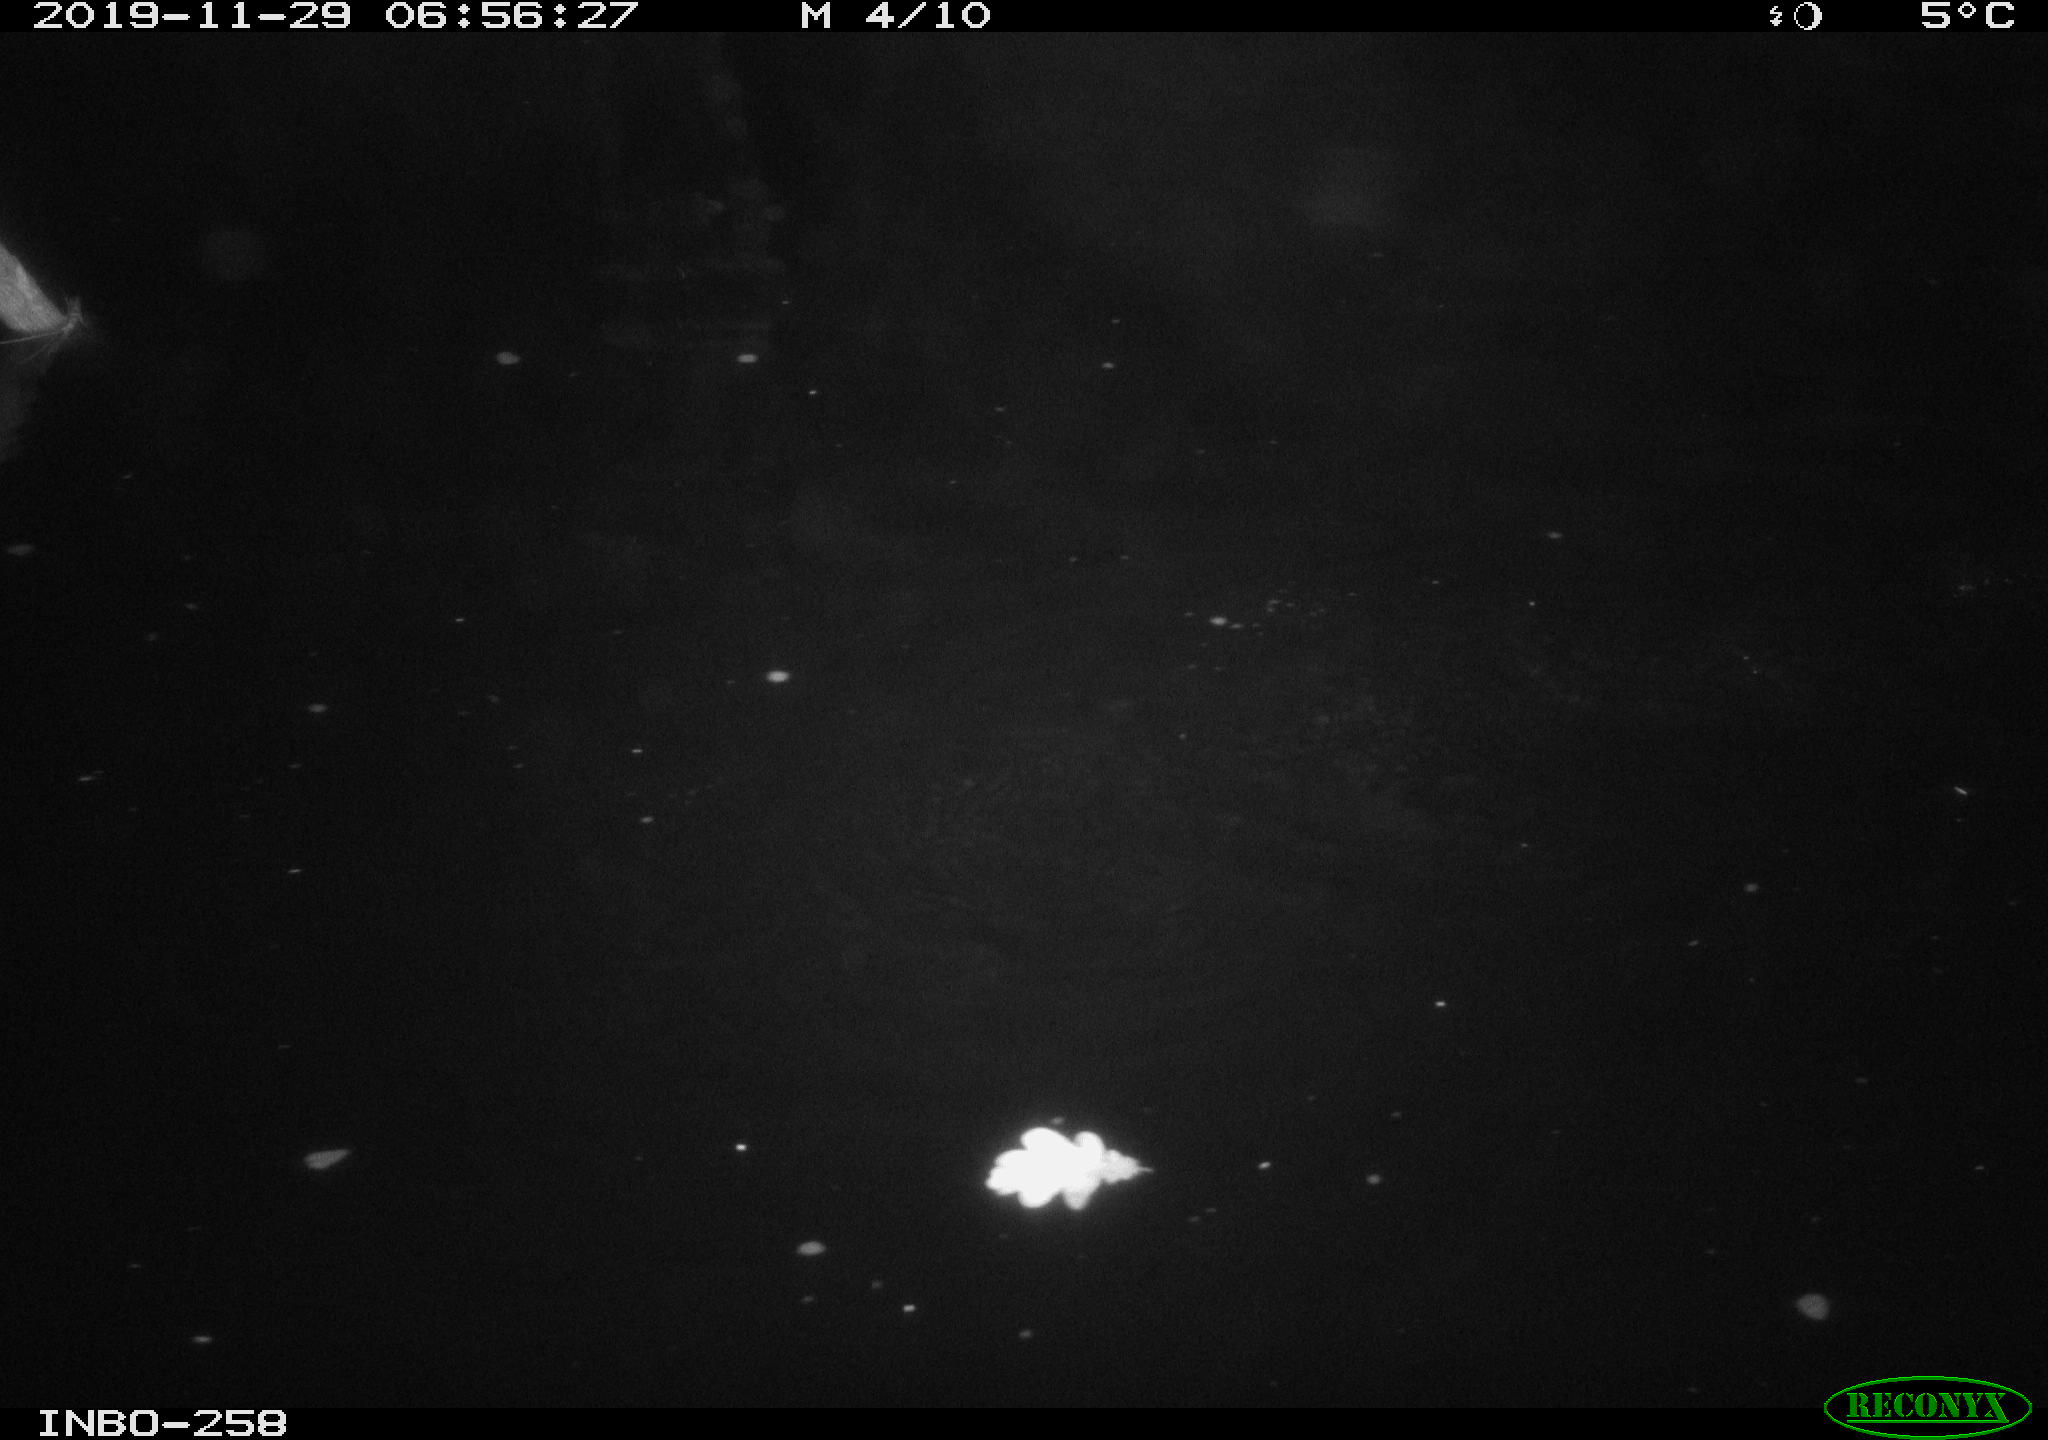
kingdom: Animalia
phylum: Chordata
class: Aves
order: Anseriformes
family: Anatidae
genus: Anas
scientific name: Anas platyrhynchos
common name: Mallard
